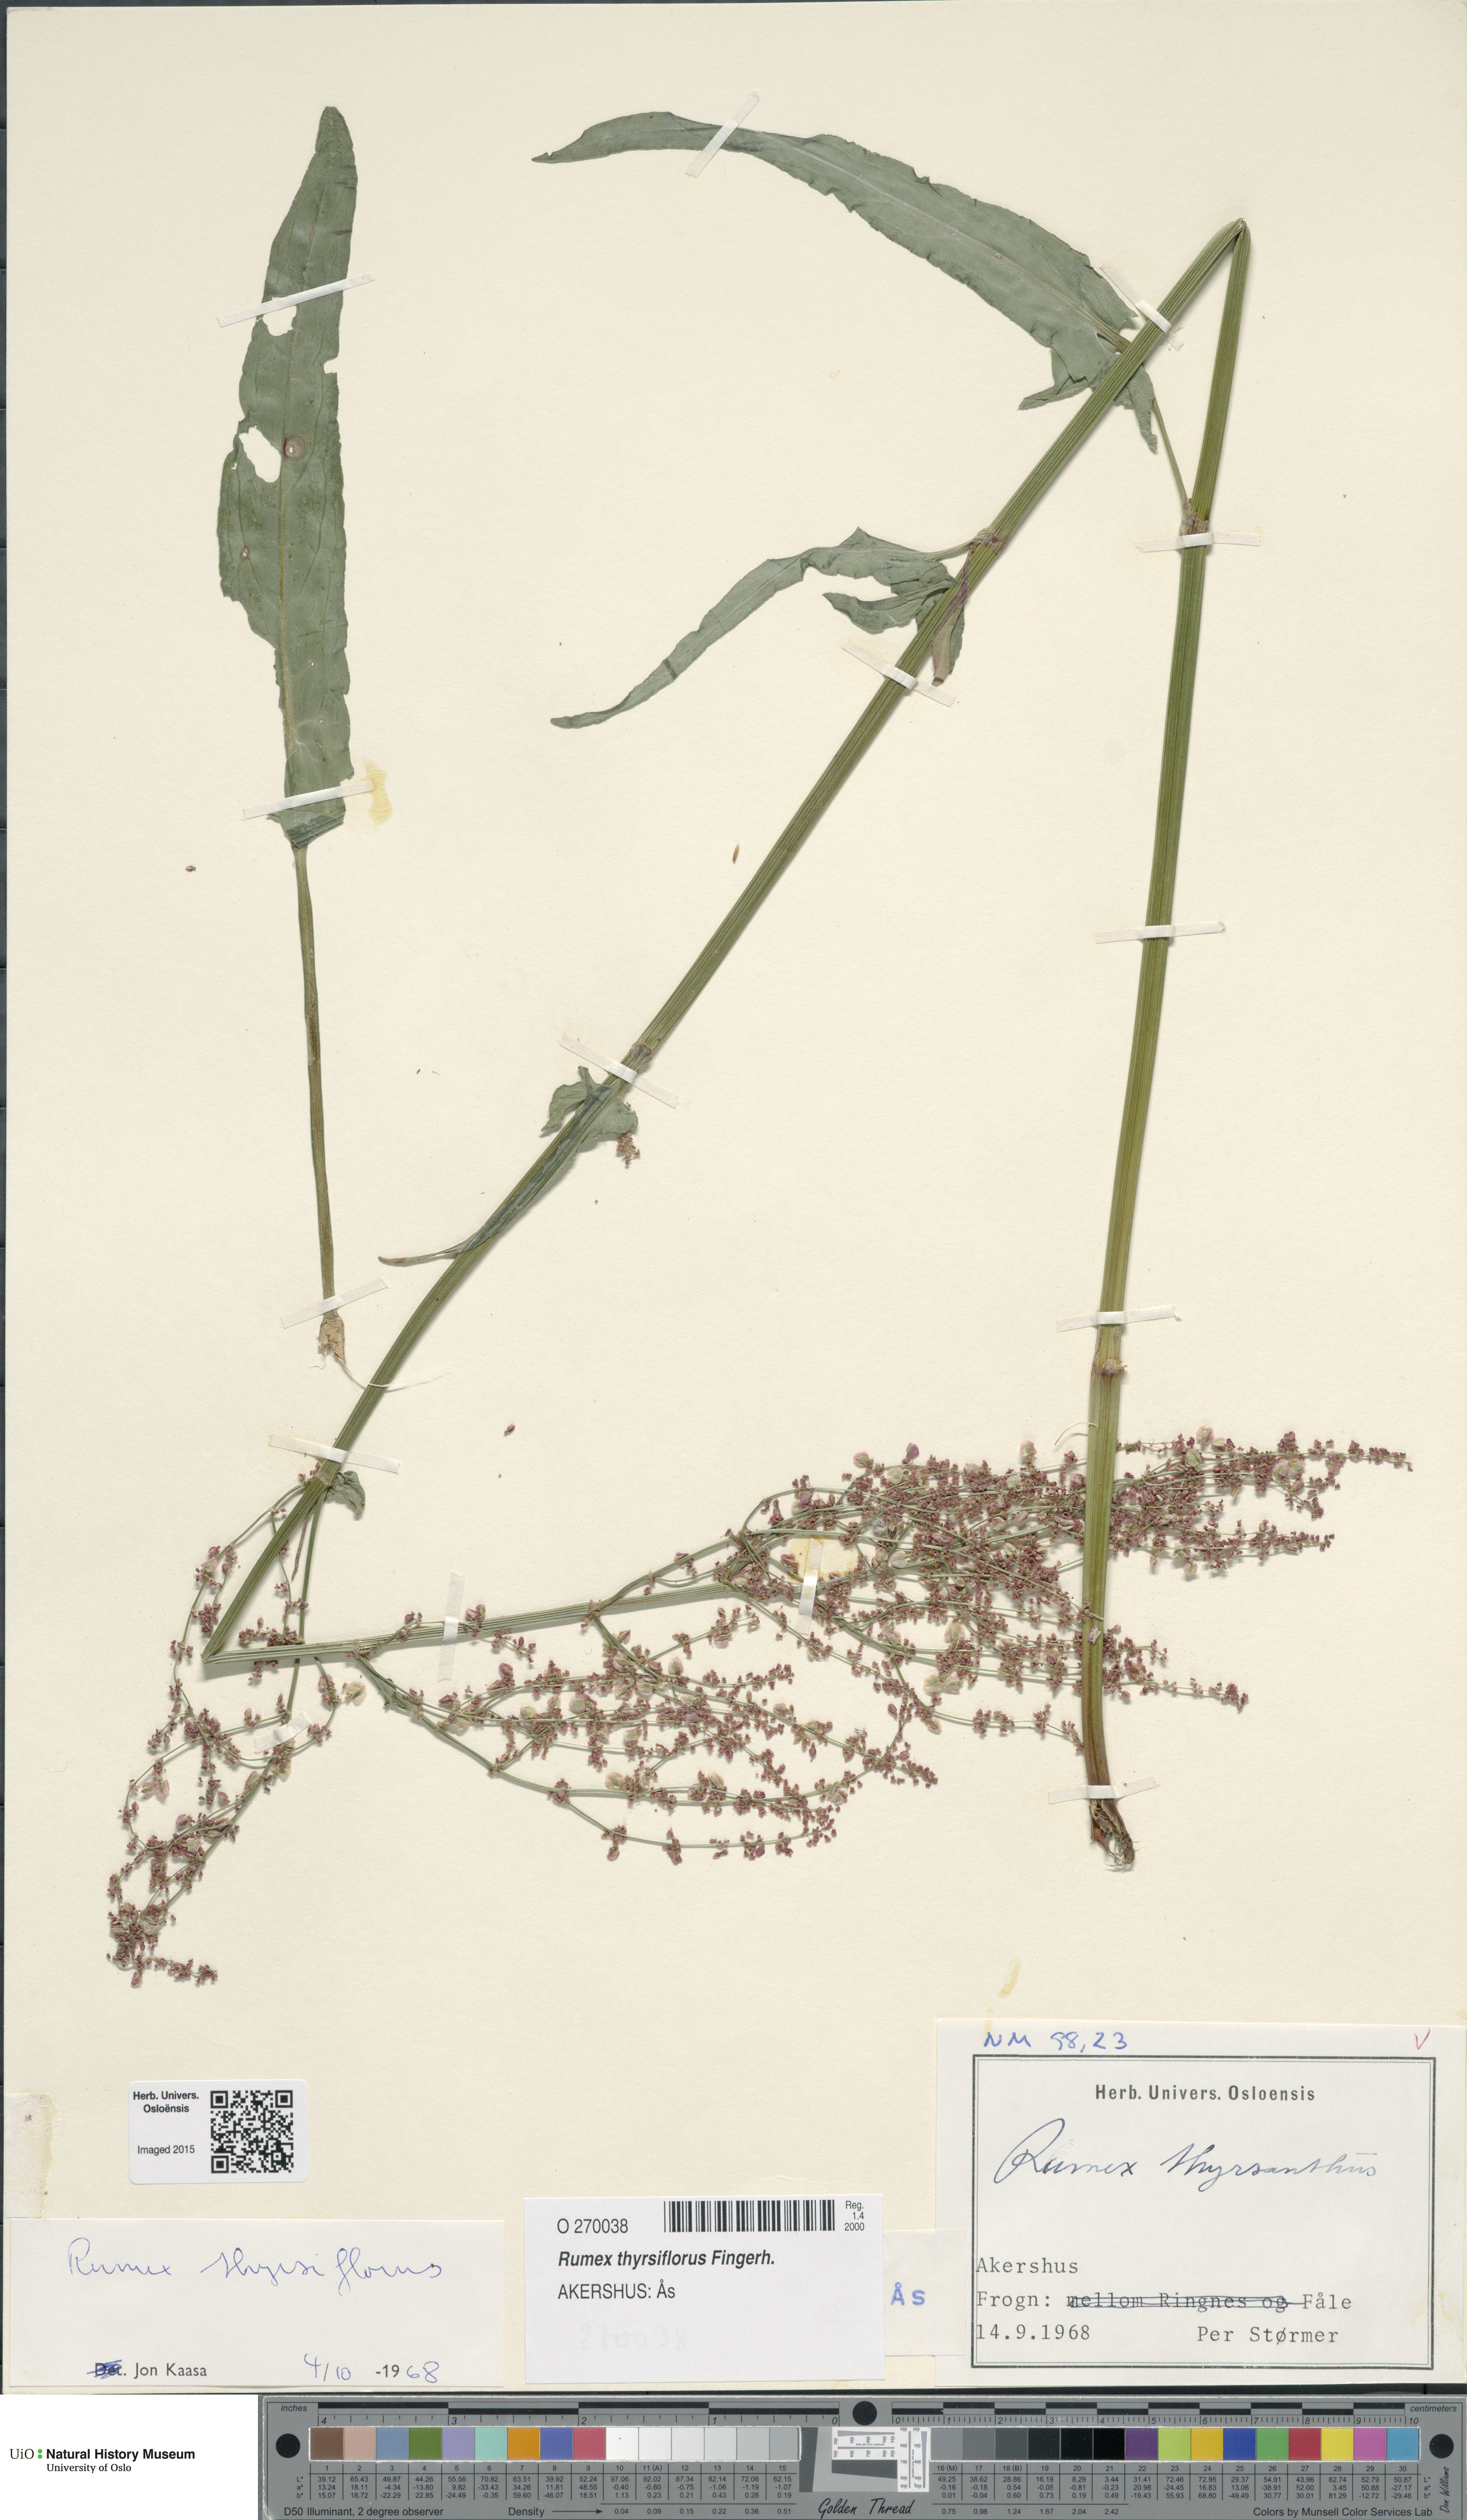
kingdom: Plantae
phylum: Tracheophyta
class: Magnoliopsida
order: Caryophyllales
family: Polygonaceae
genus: Rumex
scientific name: Rumex thyrsiflorus
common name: Garden sorrel
